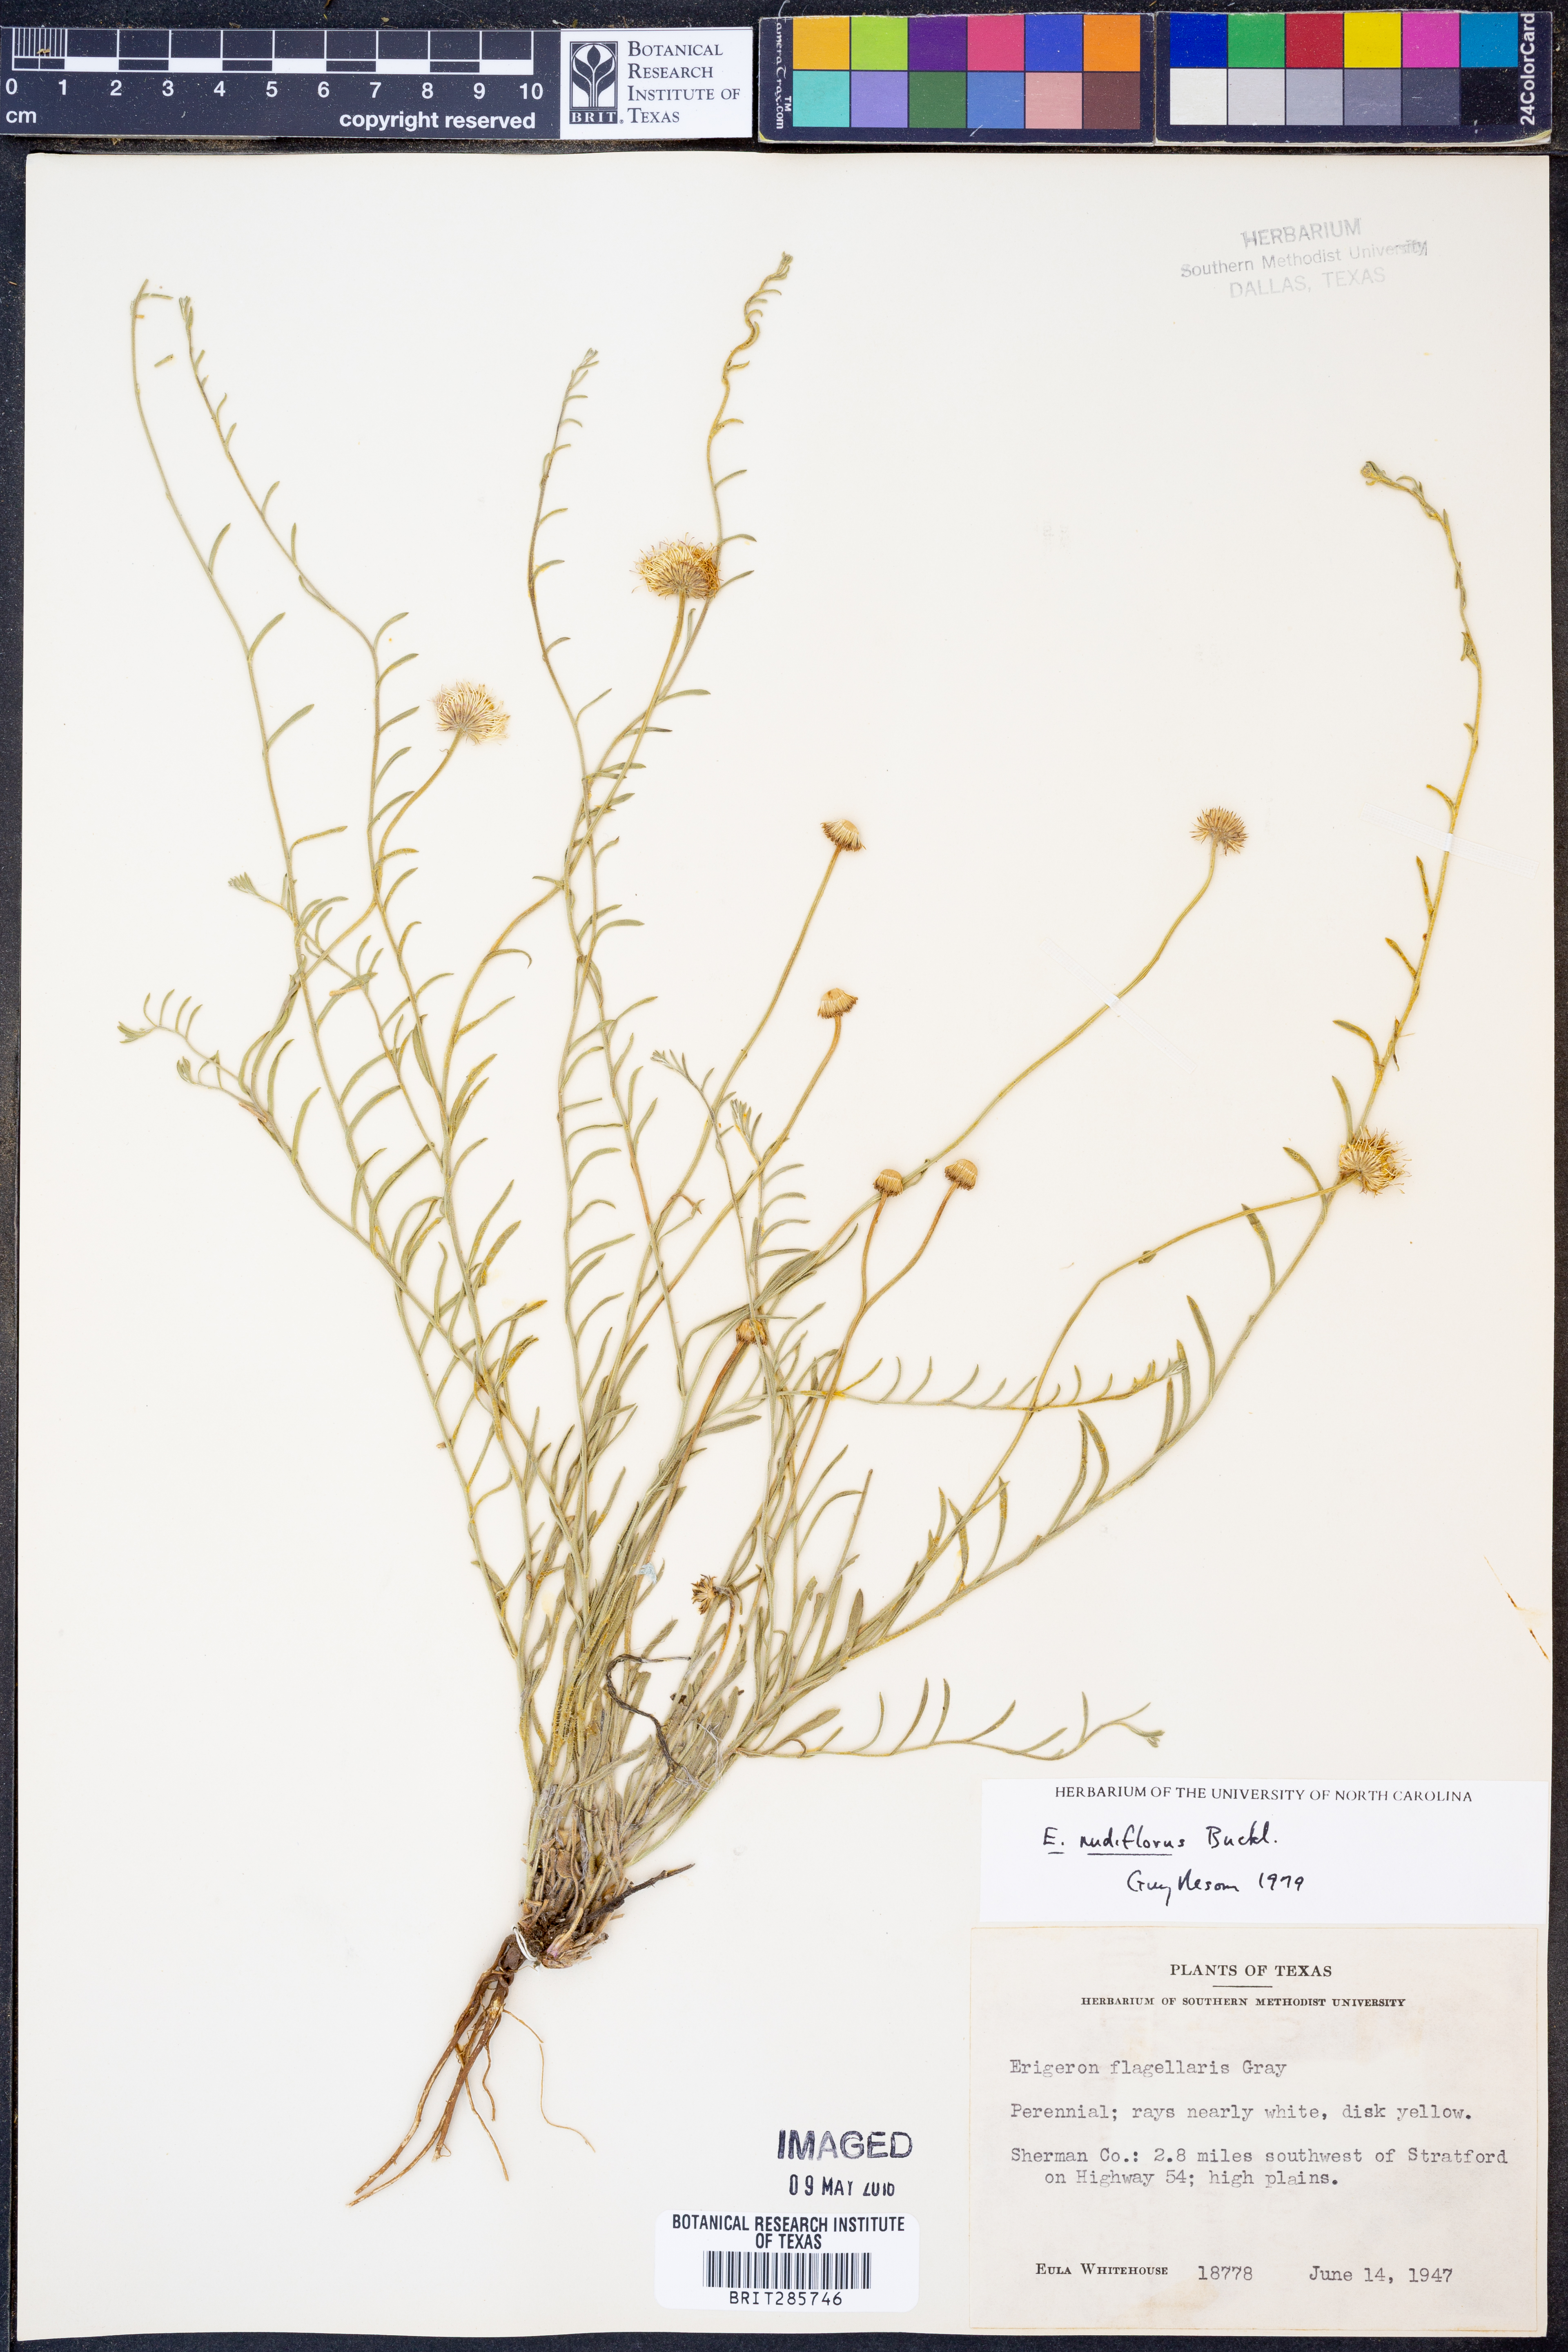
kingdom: Plantae
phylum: Tracheophyta
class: Magnoliopsida
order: Asterales
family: Asteraceae
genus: Erigeron
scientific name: Erigeron flagellaris
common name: Running fleabane
